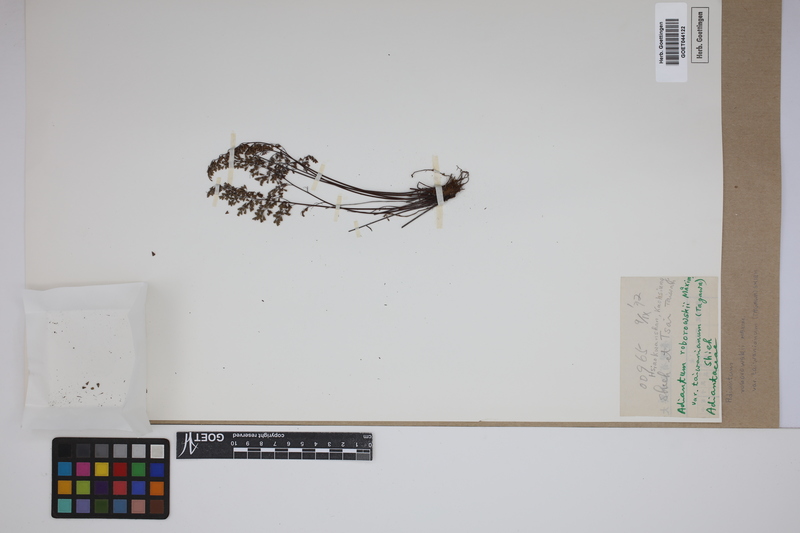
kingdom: Plantae
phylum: Tracheophyta
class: Polypodiopsida
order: Polypodiales
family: Pteridaceae
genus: Adiantum
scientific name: Adiantum taiwanianum
